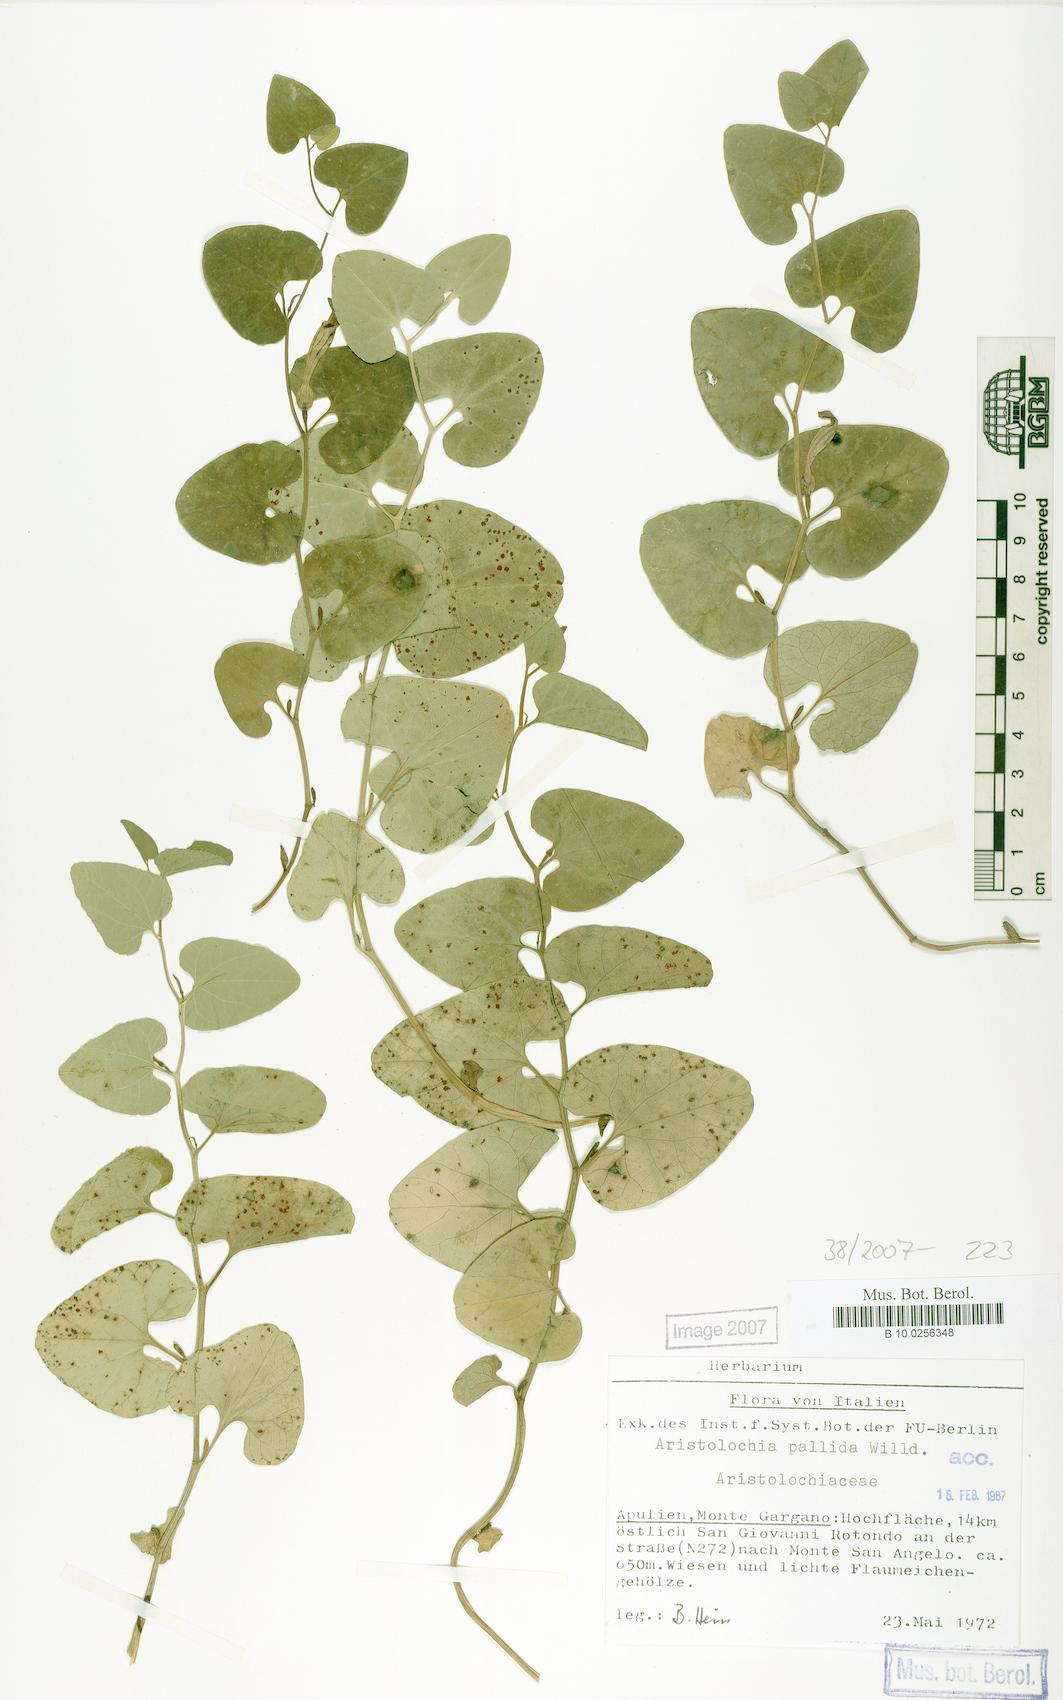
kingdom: Plantae
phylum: Tracheophyta
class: Magnoliopsida
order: Piperales
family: Aristolochiaceae
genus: Aristolochia
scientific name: Aristolochia pallida
